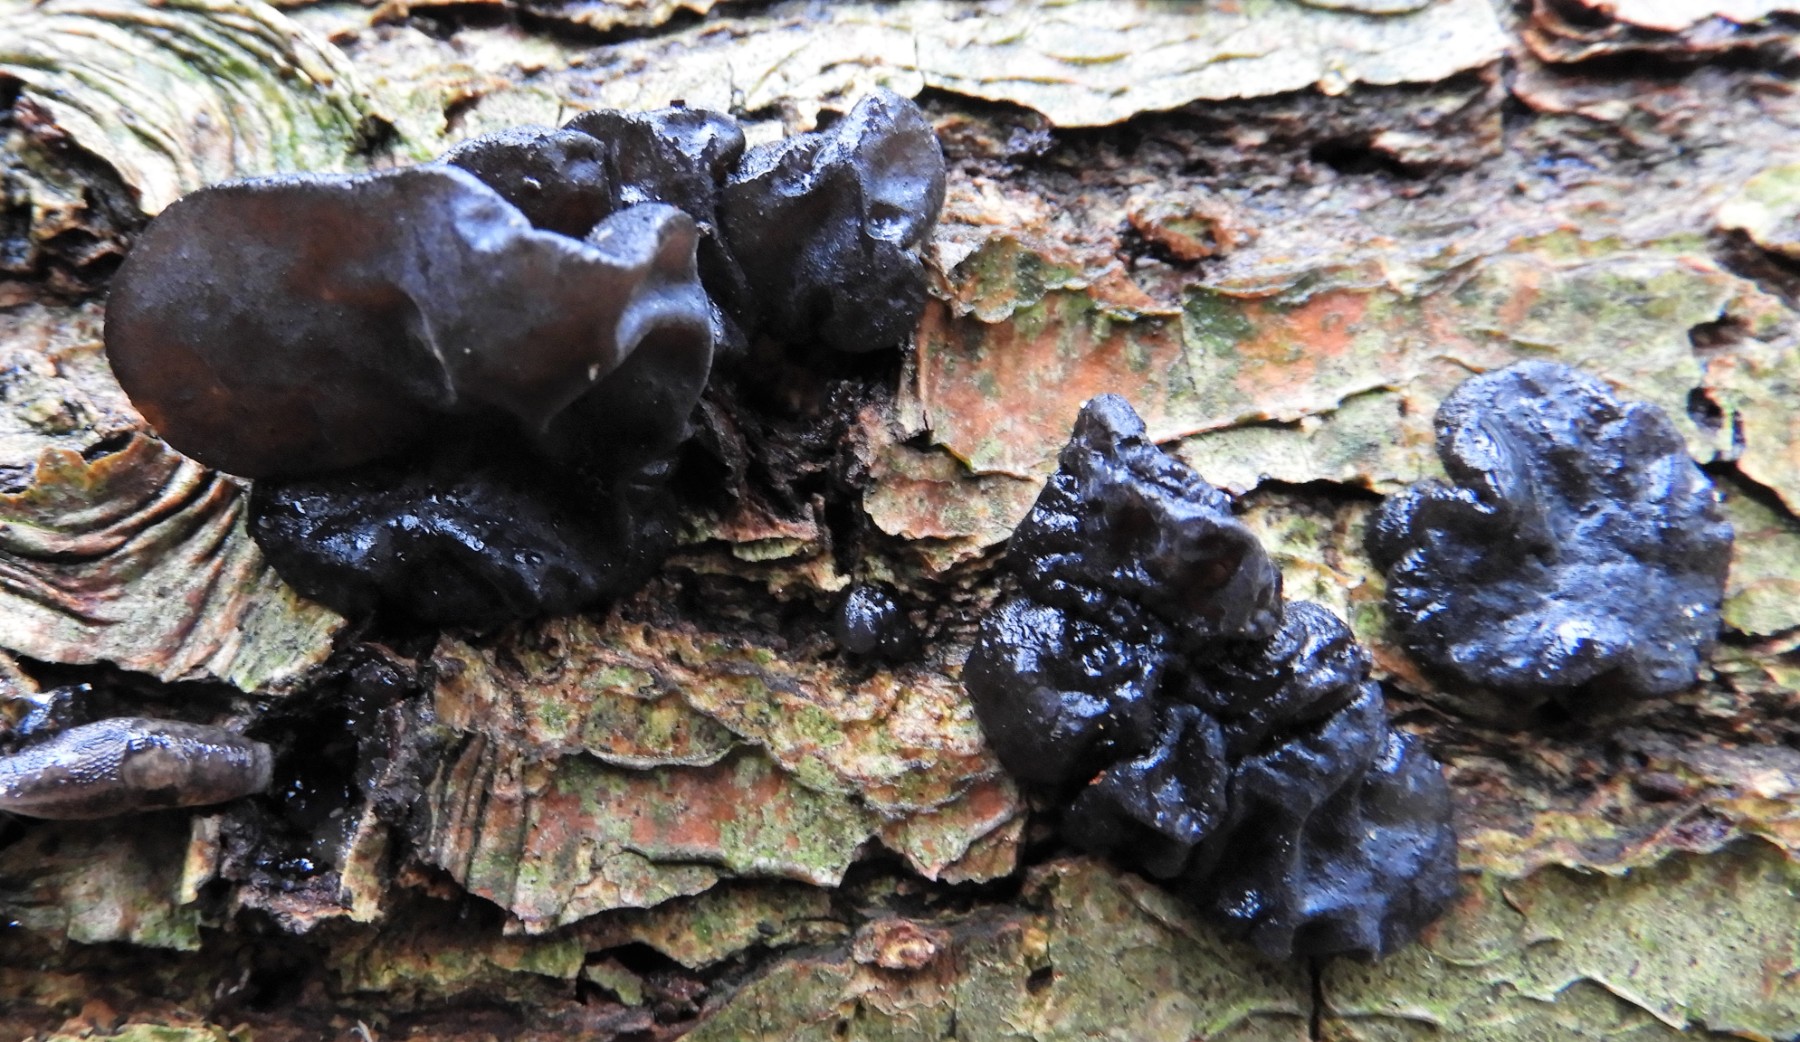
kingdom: Fungi
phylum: Basidiomycota
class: Agaricomycetes
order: Auriculariales
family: Auriculariaceae
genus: Exidia
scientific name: Exidia glandulosa
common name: ege-bævretop
